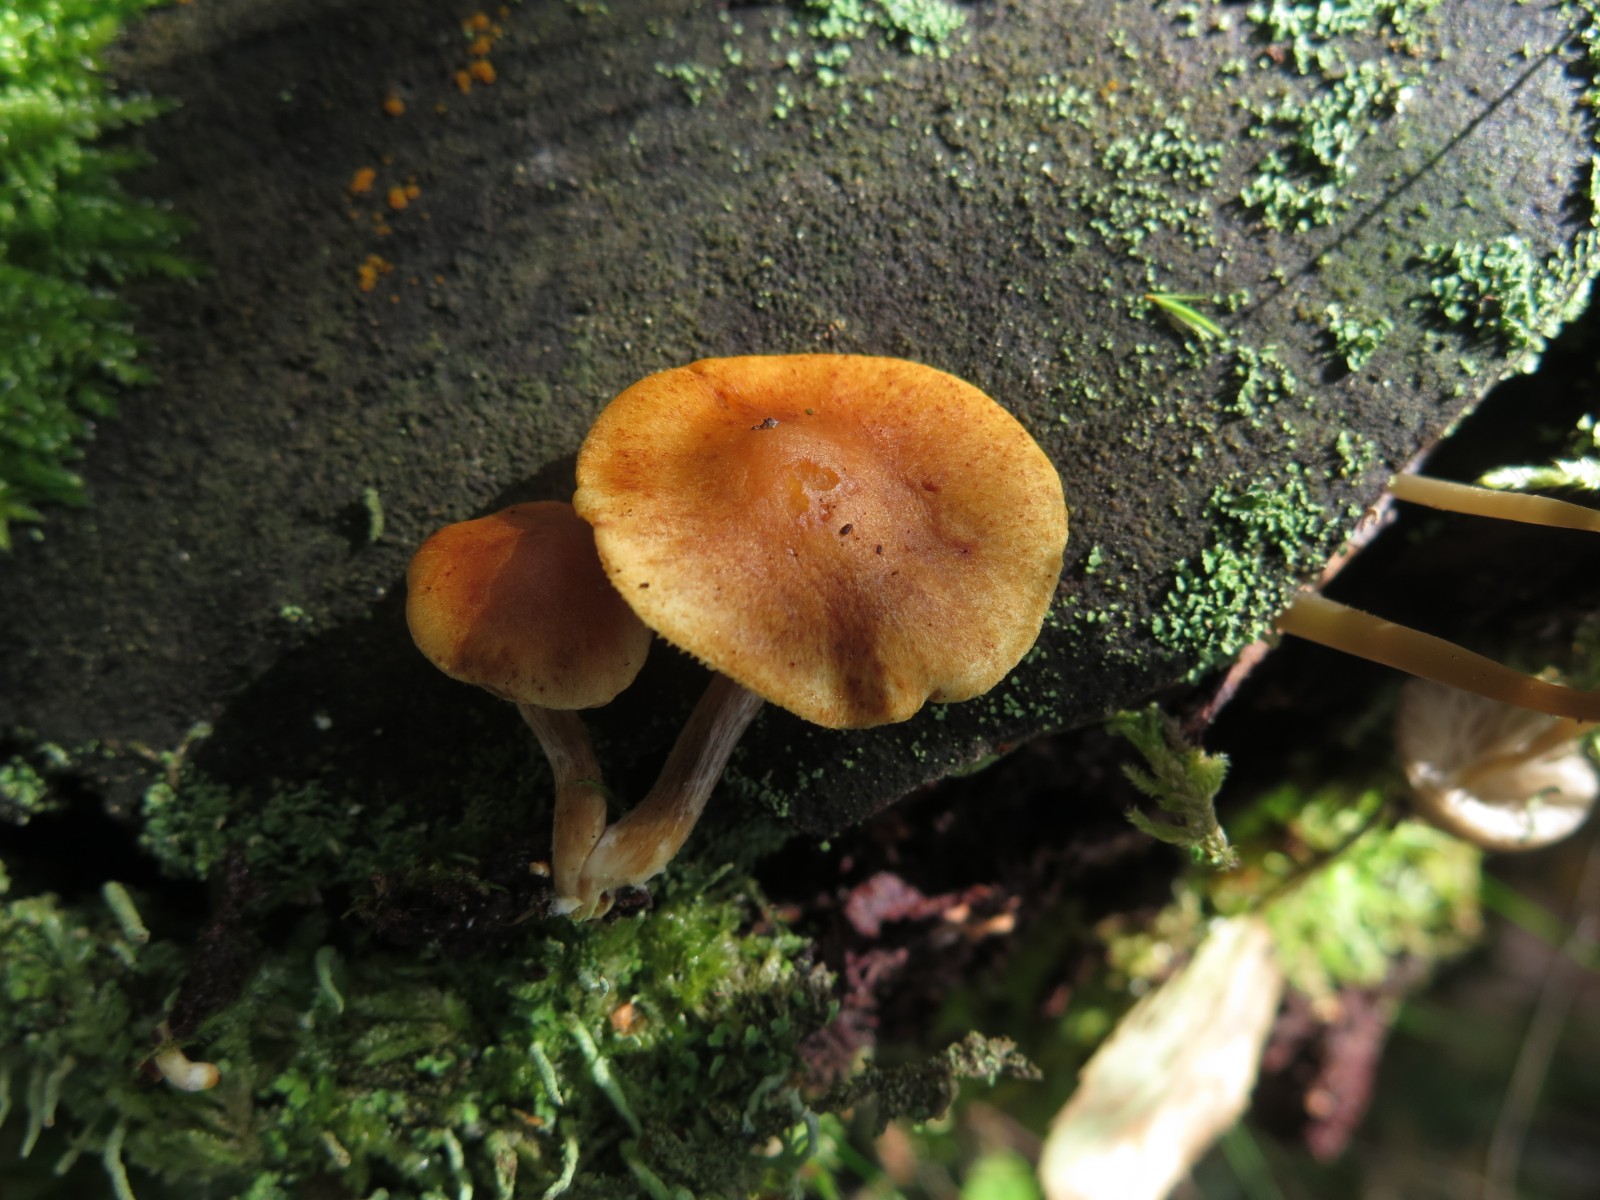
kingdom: Fungi
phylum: Basidiomycota
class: Agaricomycetes
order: Agaricales
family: Hymenogastraceae
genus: Gymnopilus
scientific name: Gymnopilus penetrans
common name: plettet flammehat
